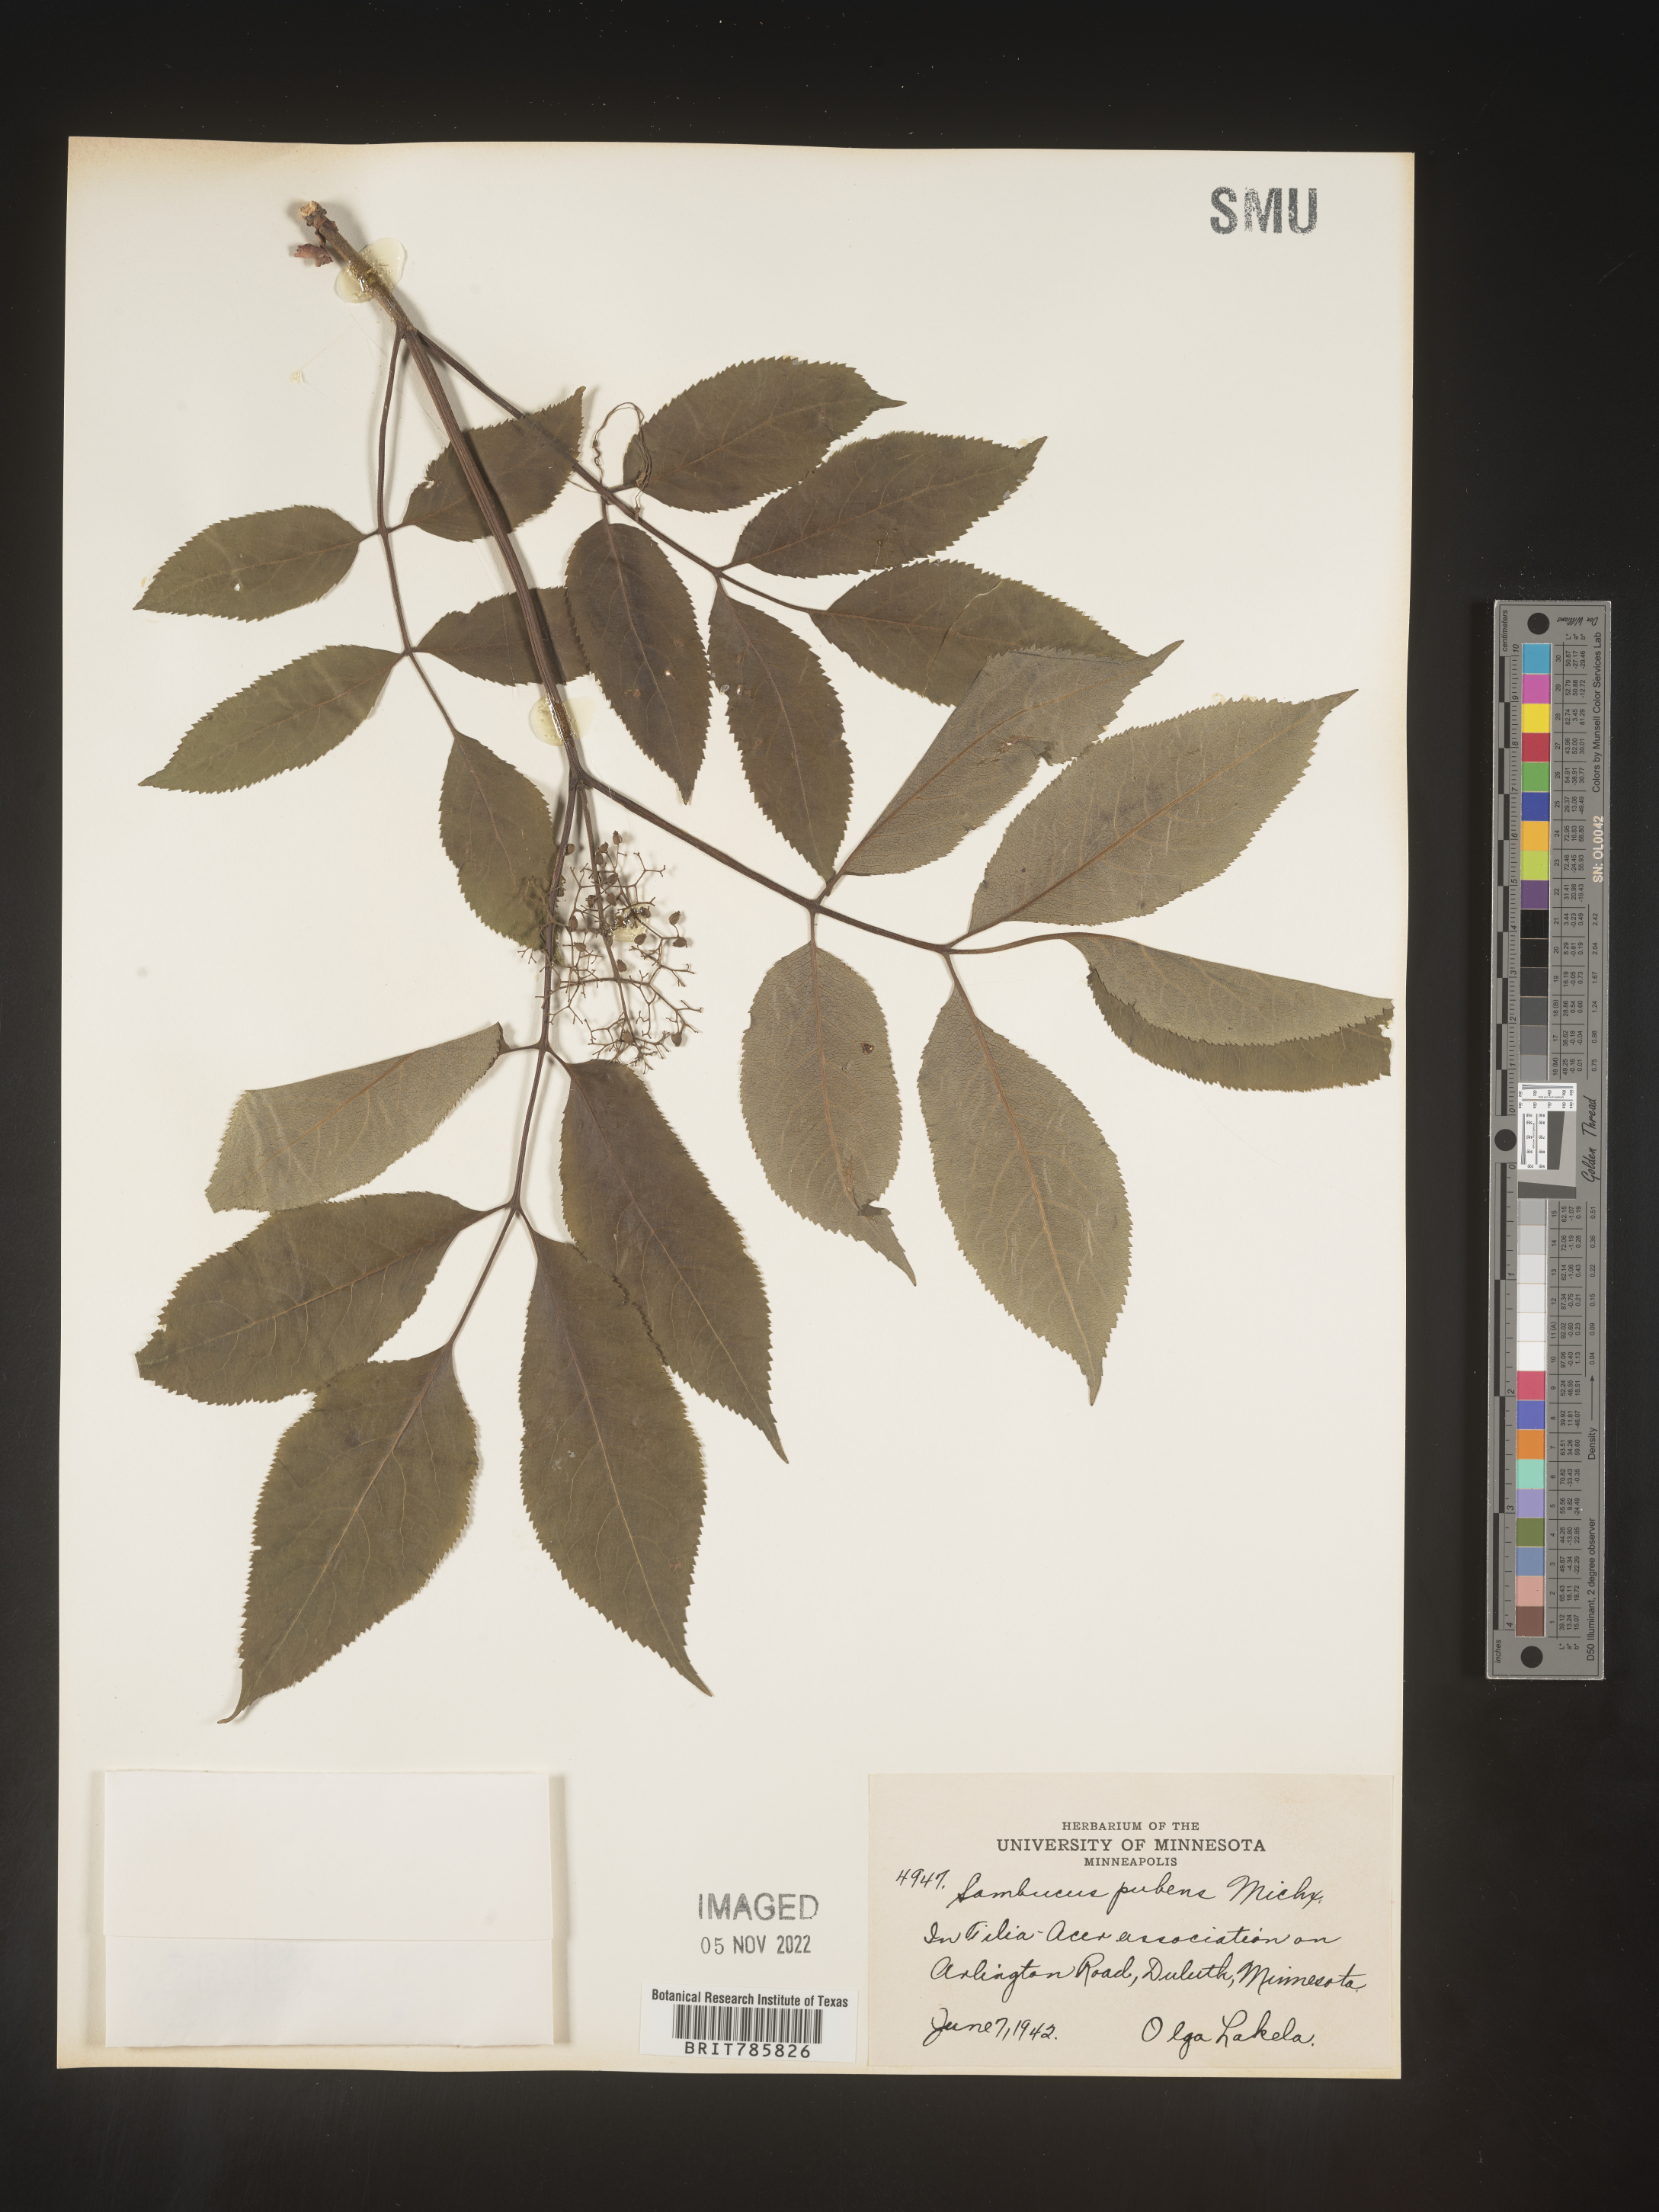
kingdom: Plantae
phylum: Tracheophyta
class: Magnoliopsida
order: Dipsacales
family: Viburnaceae
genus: Sambucus
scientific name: Sambucus
